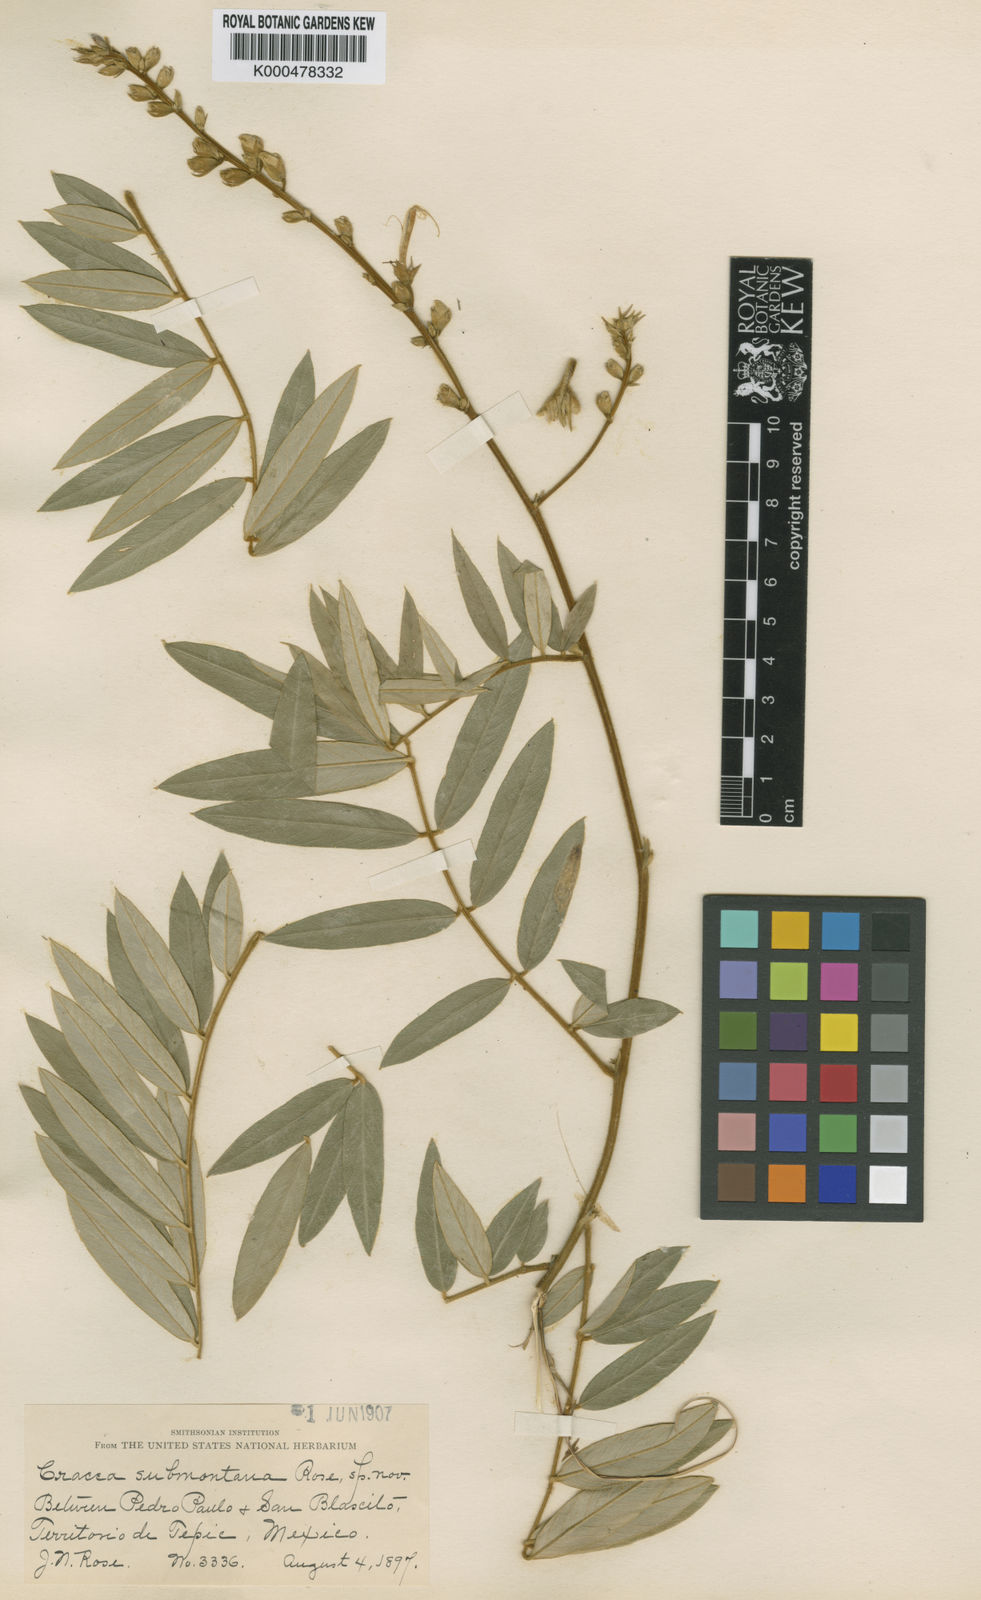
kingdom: Plantae
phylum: Tracheophyta
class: Magnoliopsida
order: Fabales
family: Fabaceae
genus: Tephrosia
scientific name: Tephrosia submontana
